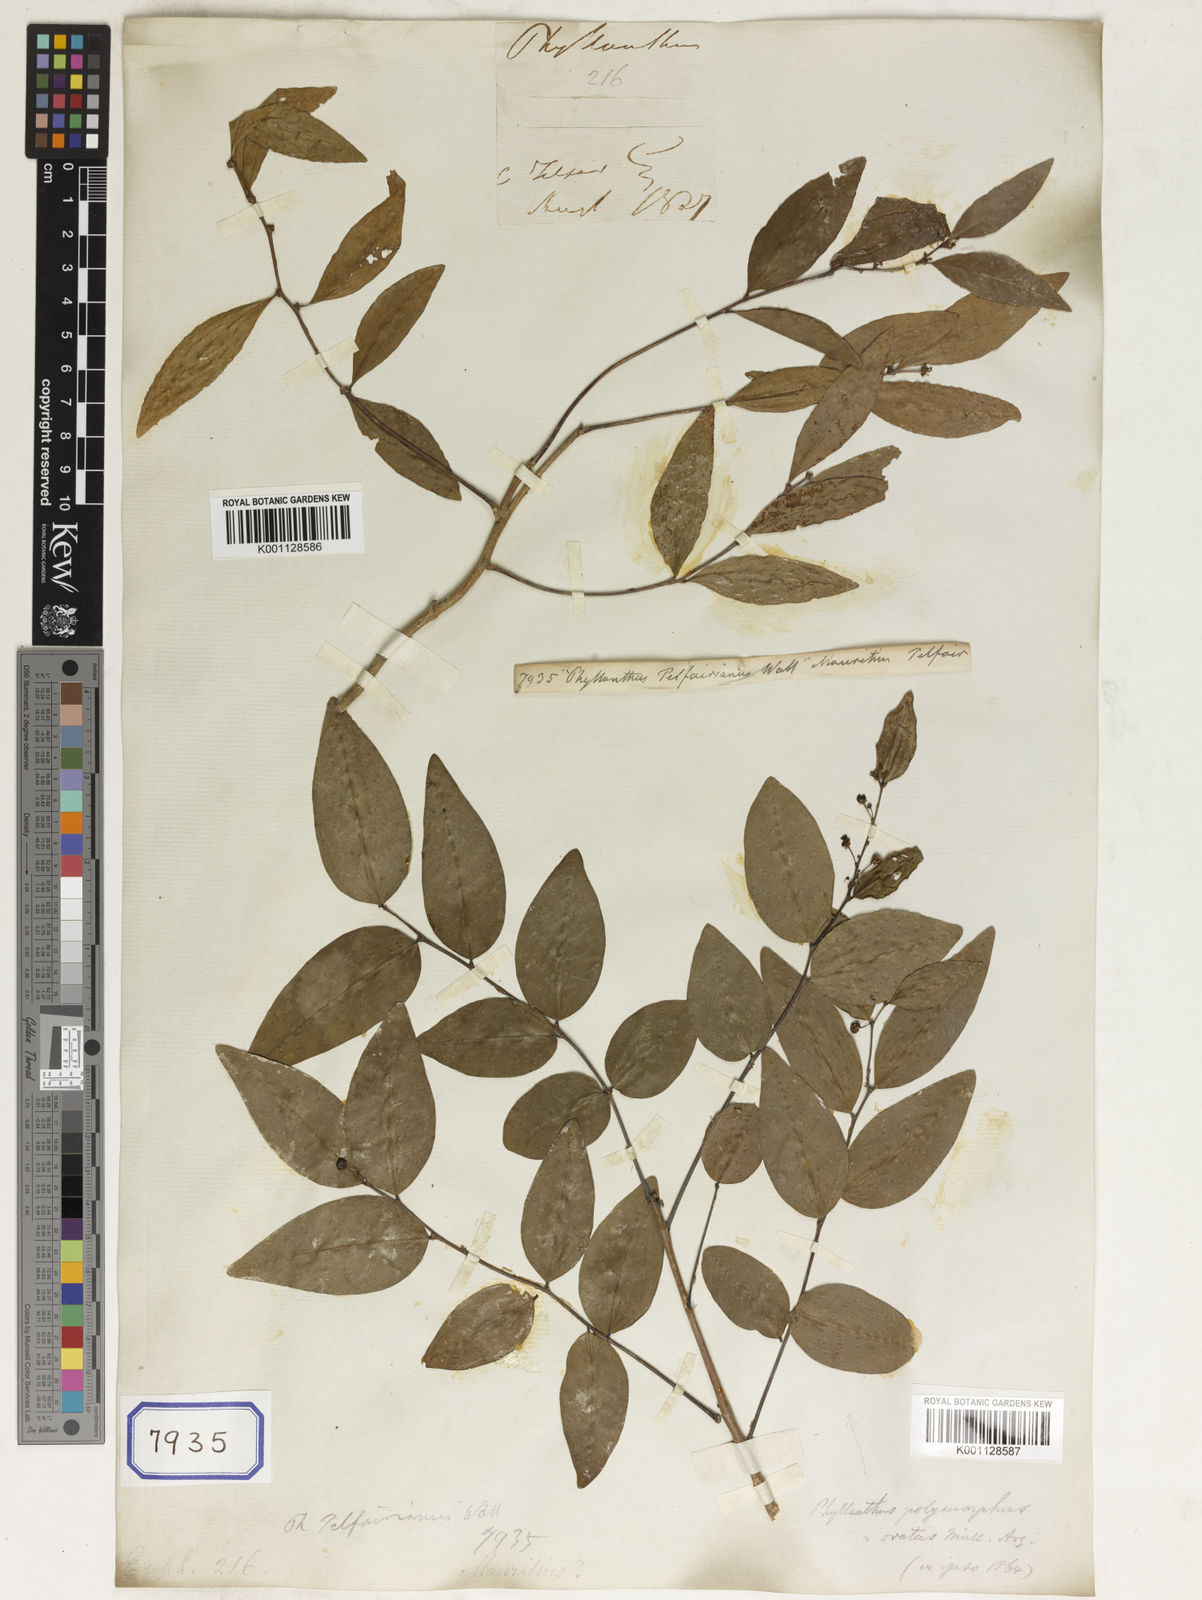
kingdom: Plantae
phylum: Tracheophyta
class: Magnoliopsida
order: Malpighiales
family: Euphorbiaceae
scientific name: Euphorbiaceae
